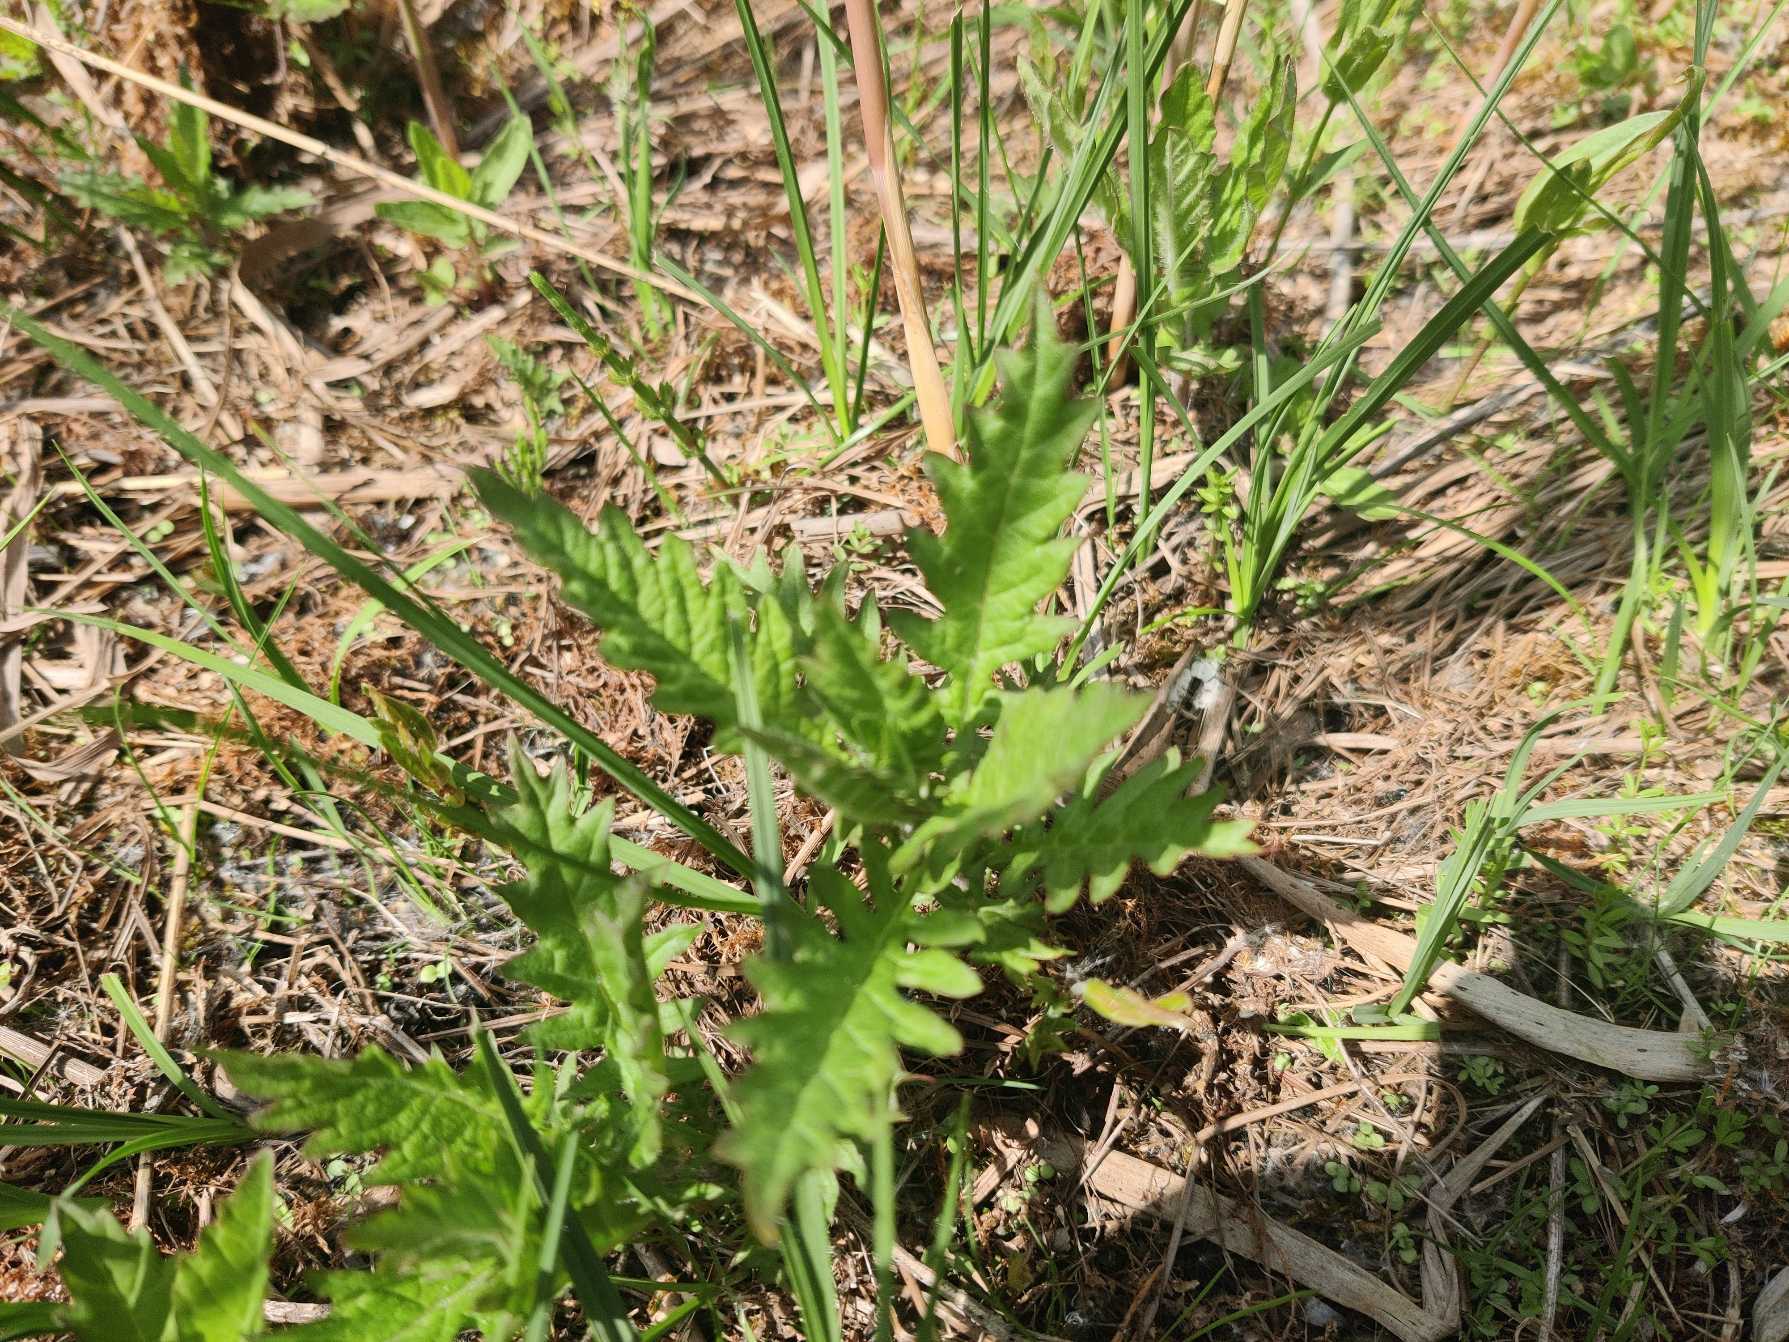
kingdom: Plantae
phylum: Tracheophyta
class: Magnoliopsida
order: Lamiales
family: Lamiaceae
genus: Lycopus
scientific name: Lycopus europaeus
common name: Sværtevæld
